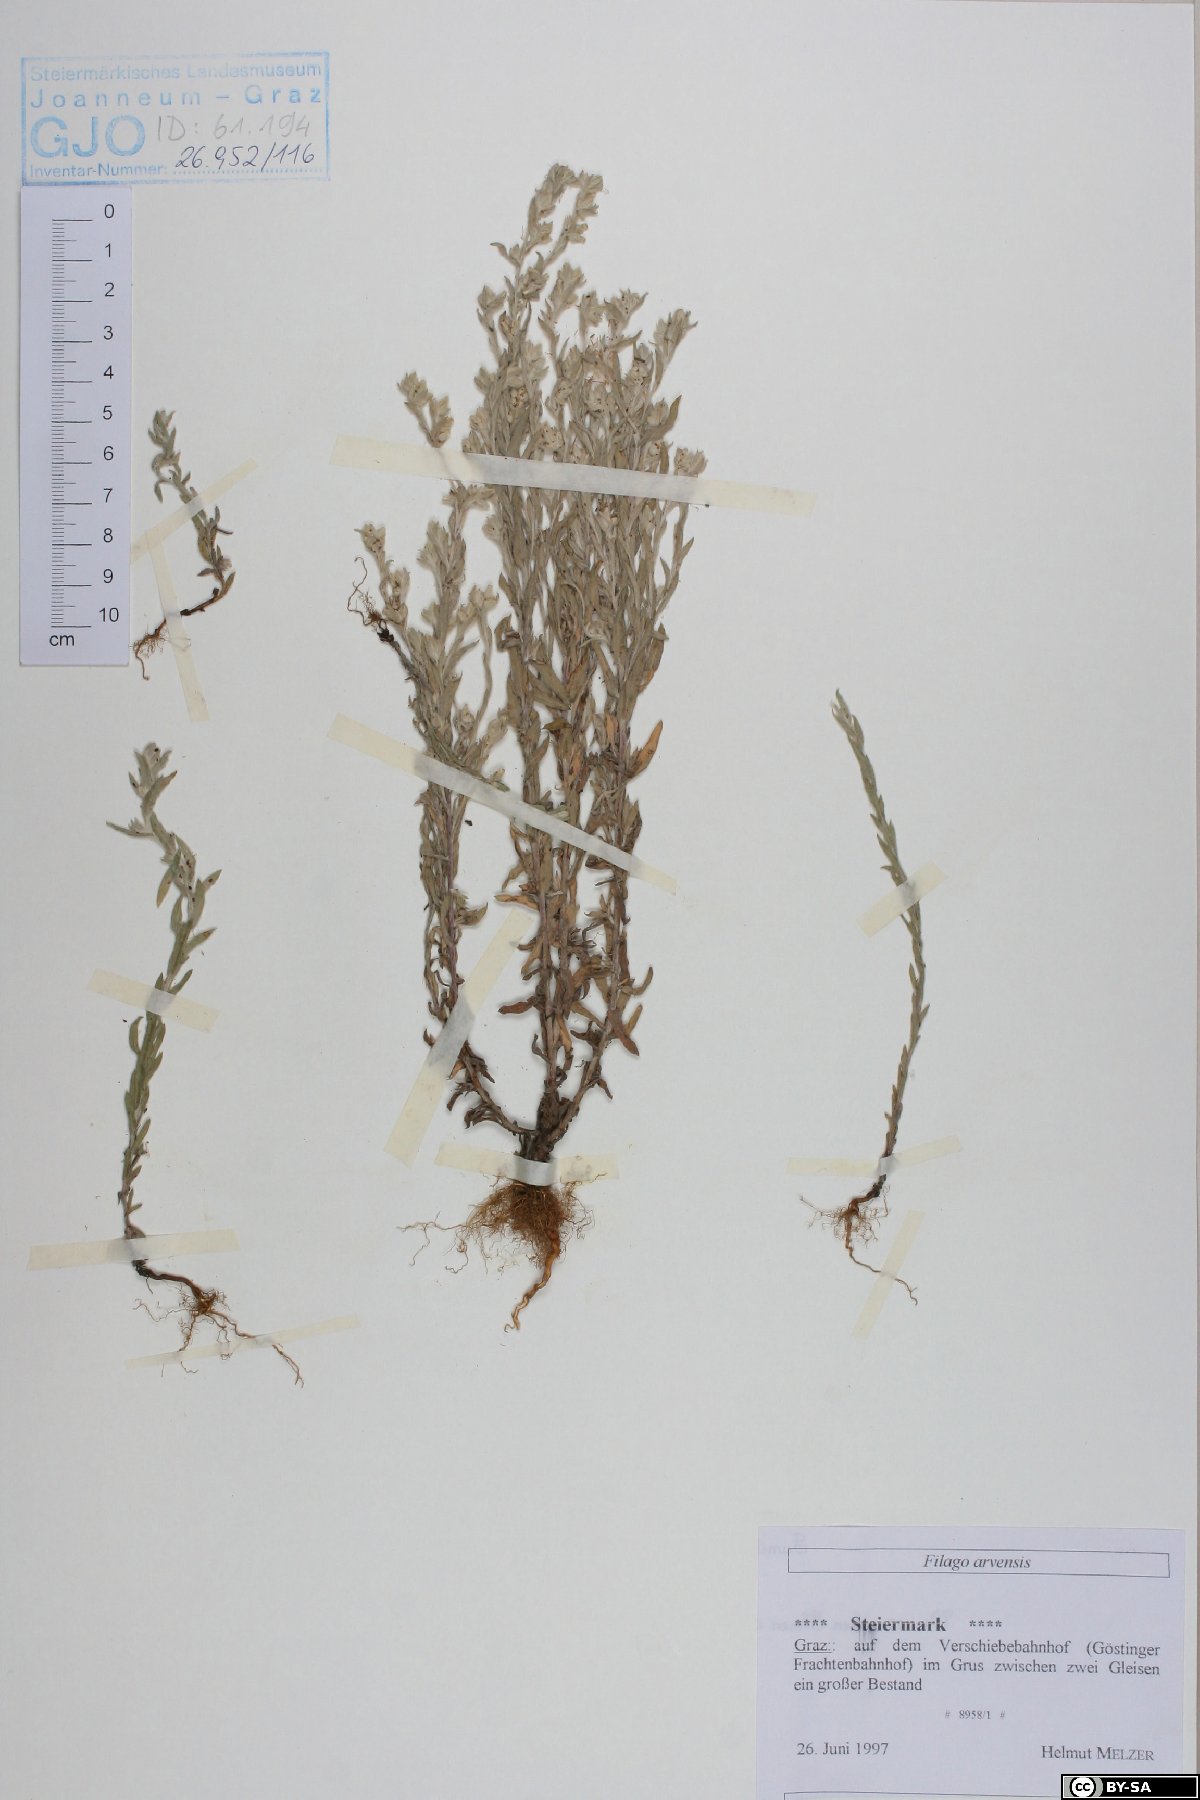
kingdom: Plantae
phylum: Tracheophyta
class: Magnoliopsida
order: Asterales
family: Asteraceae
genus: Filago
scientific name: Filago arvensis
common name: Field cudweed
